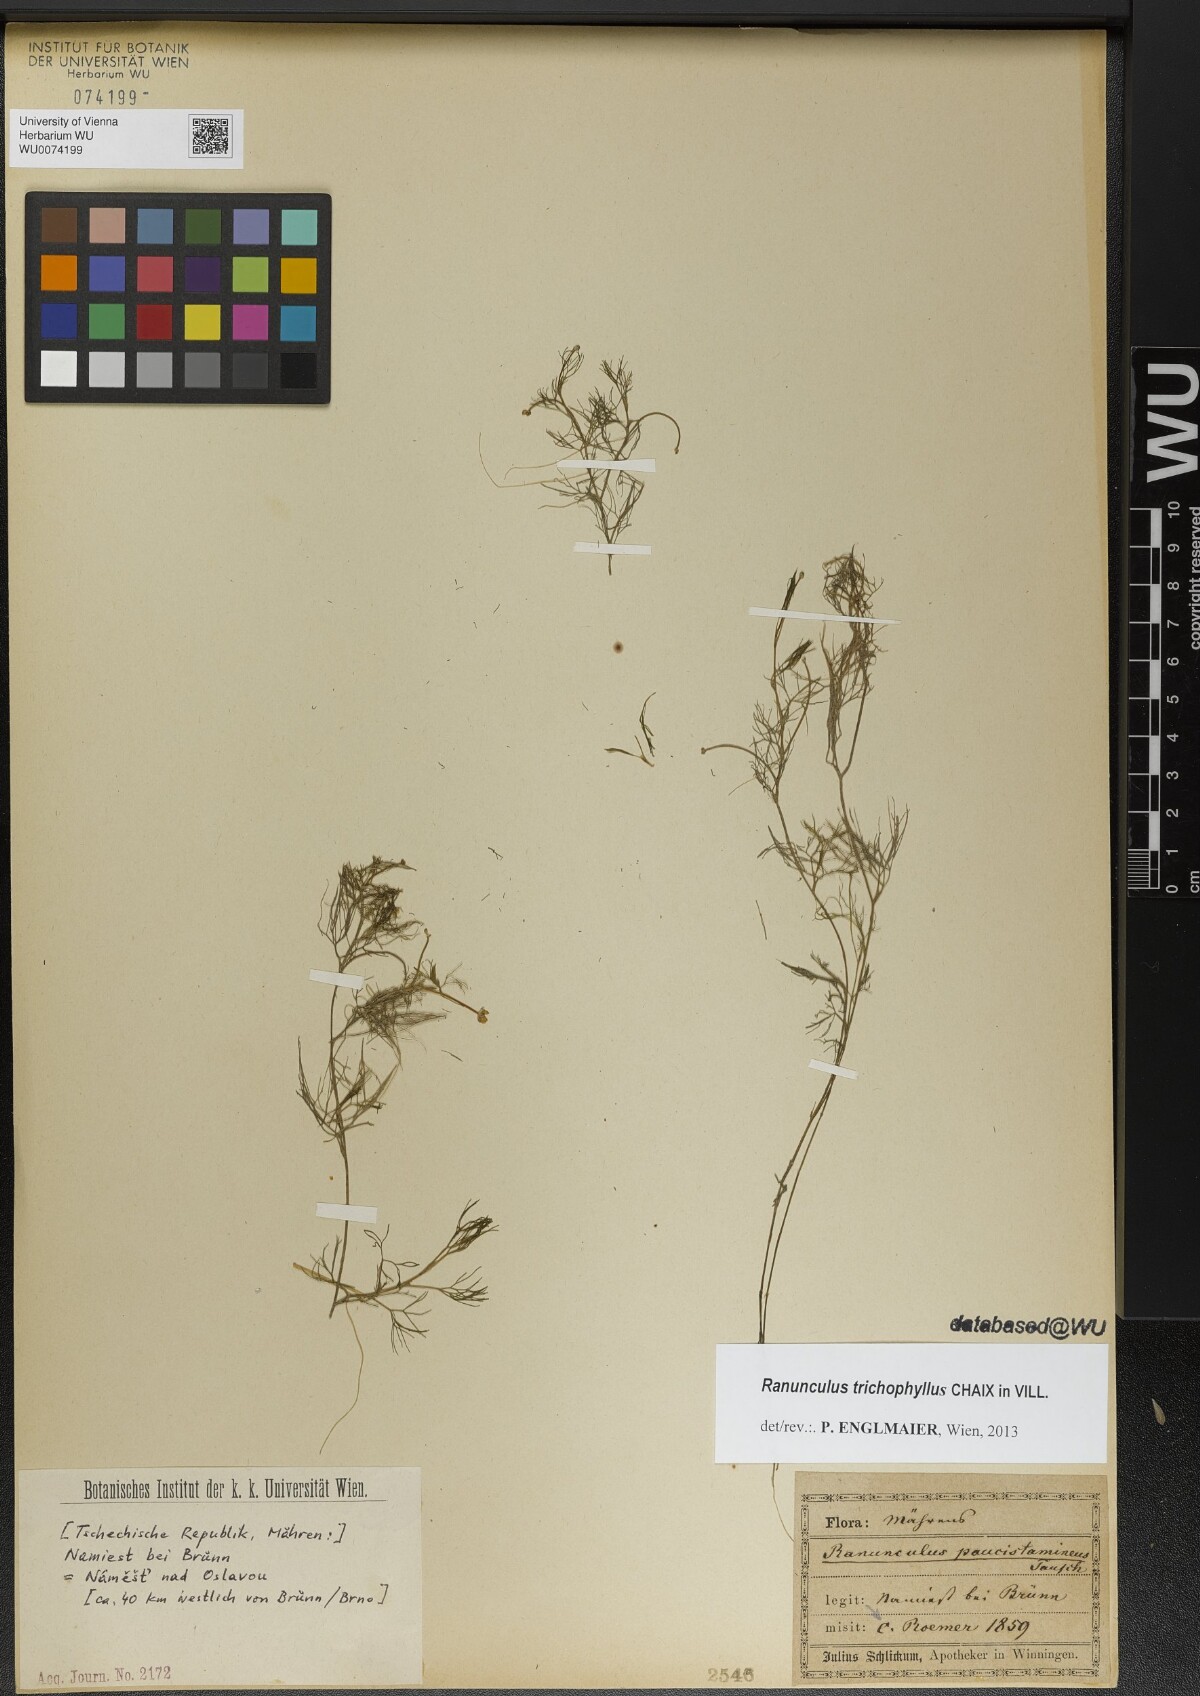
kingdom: Plantae
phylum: Tracheophyta
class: Magnoliopsida
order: Ranunculales
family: Ranunculaceae
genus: Ranunculus
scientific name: Ranunculus trichophyllus
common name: Thread-leaved water-crowfoot
